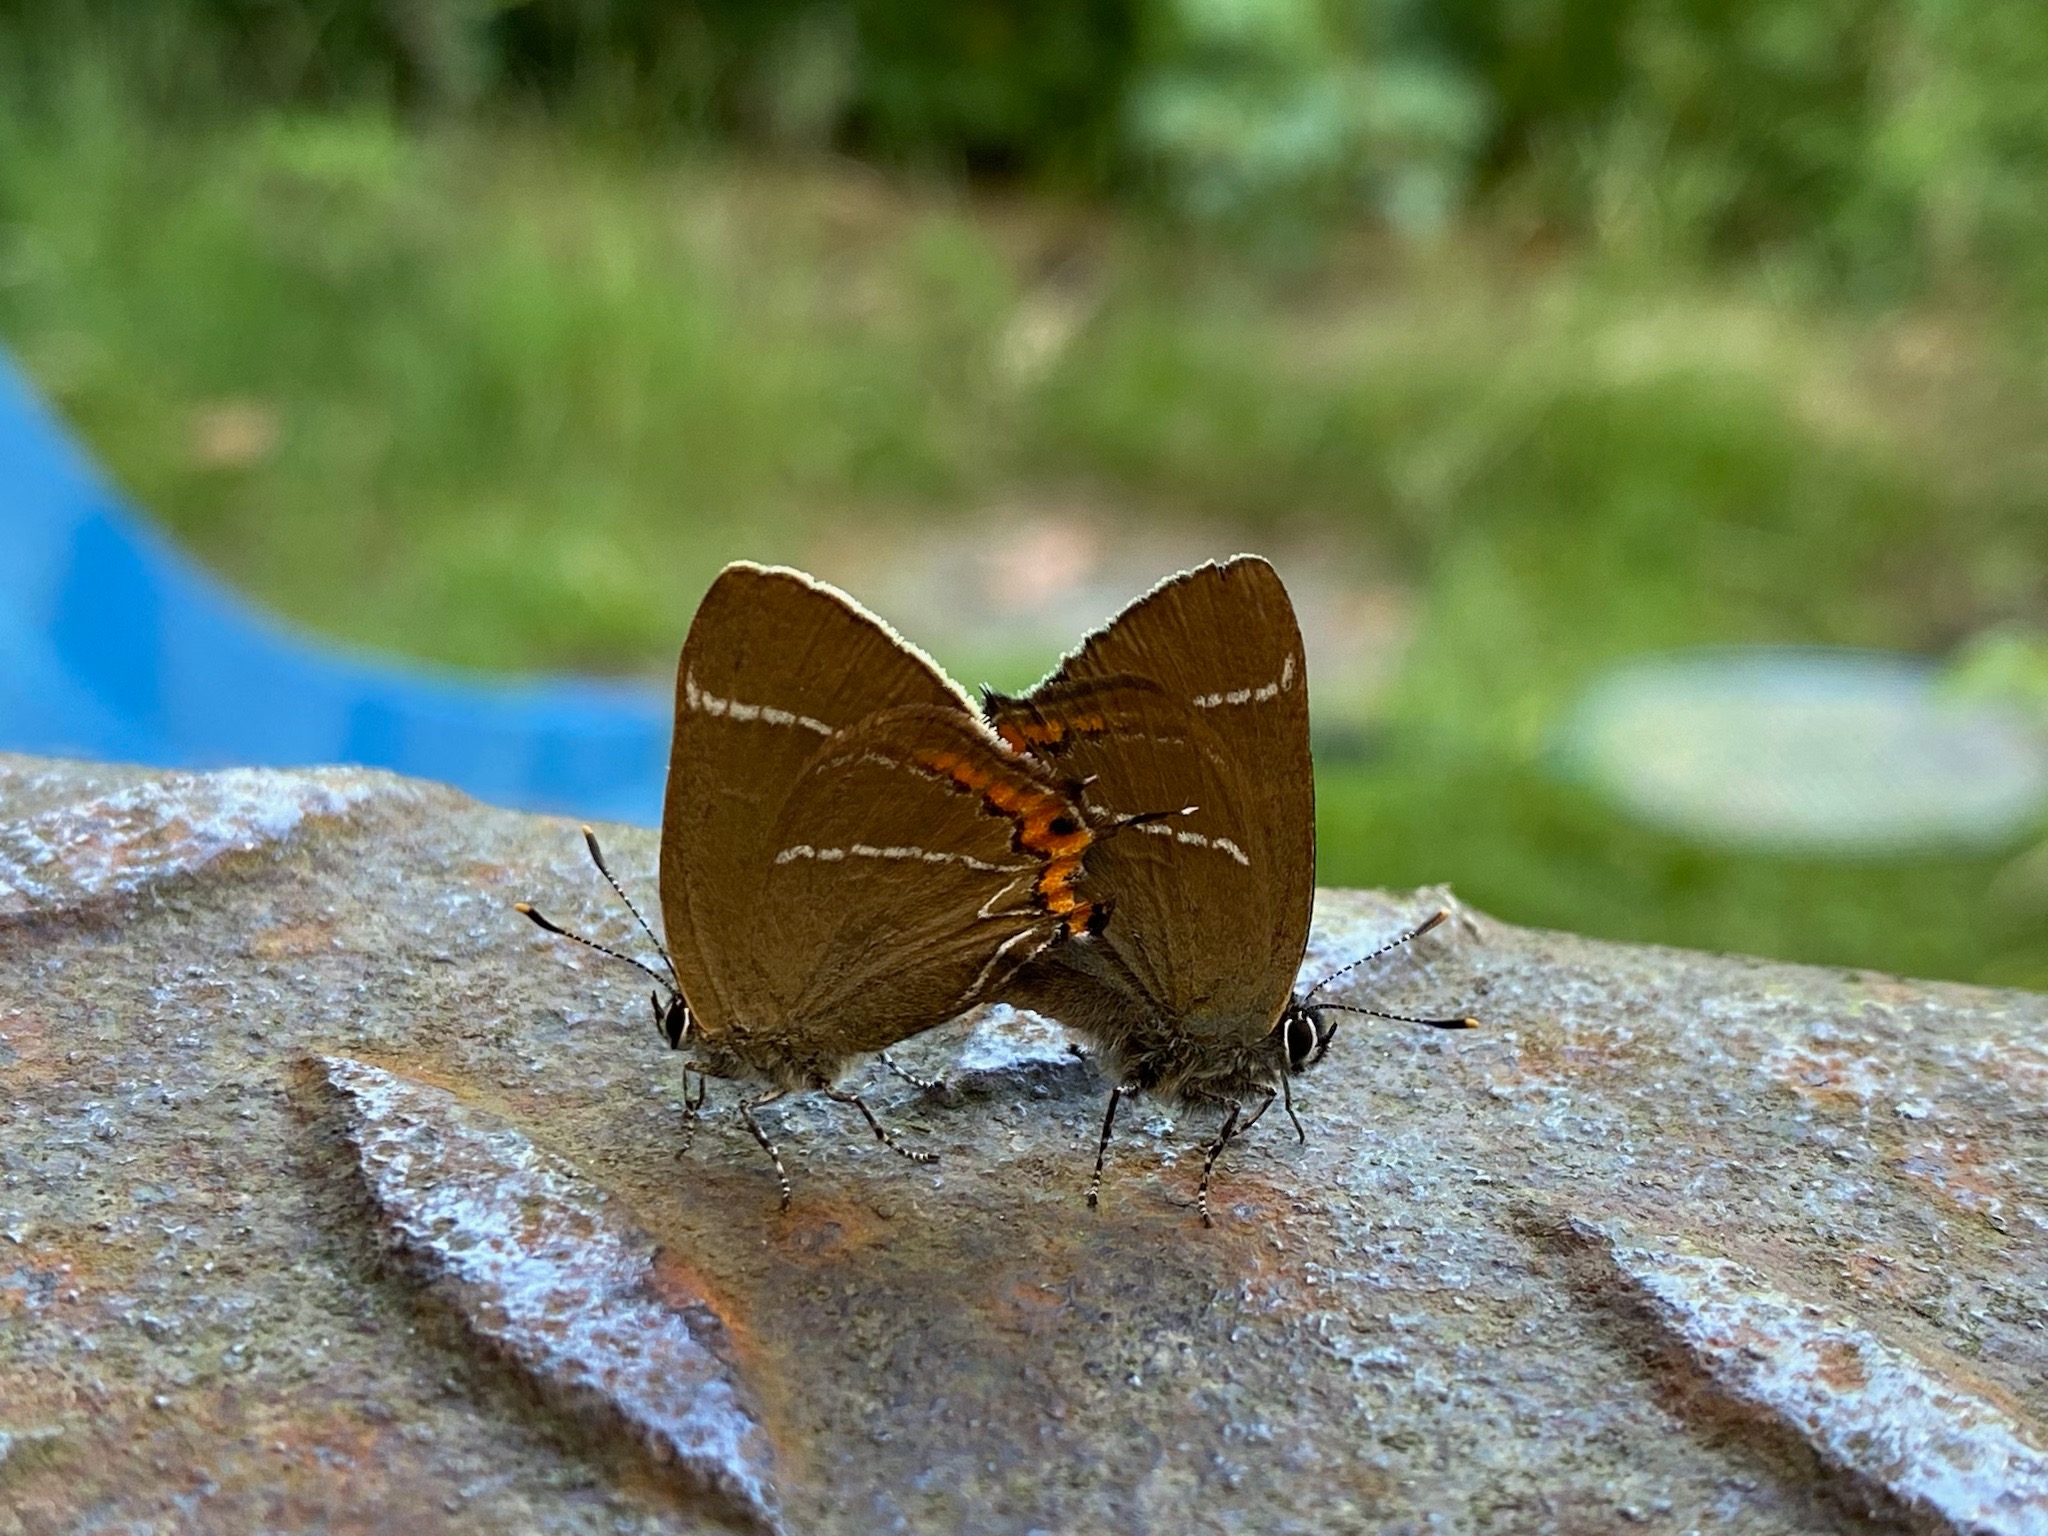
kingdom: Animalia
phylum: Arthropoda
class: Insecta
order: Lepidoptera
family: Lycaenidae
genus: Satyrium
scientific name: Satyrium w-album
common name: Det hvide W
